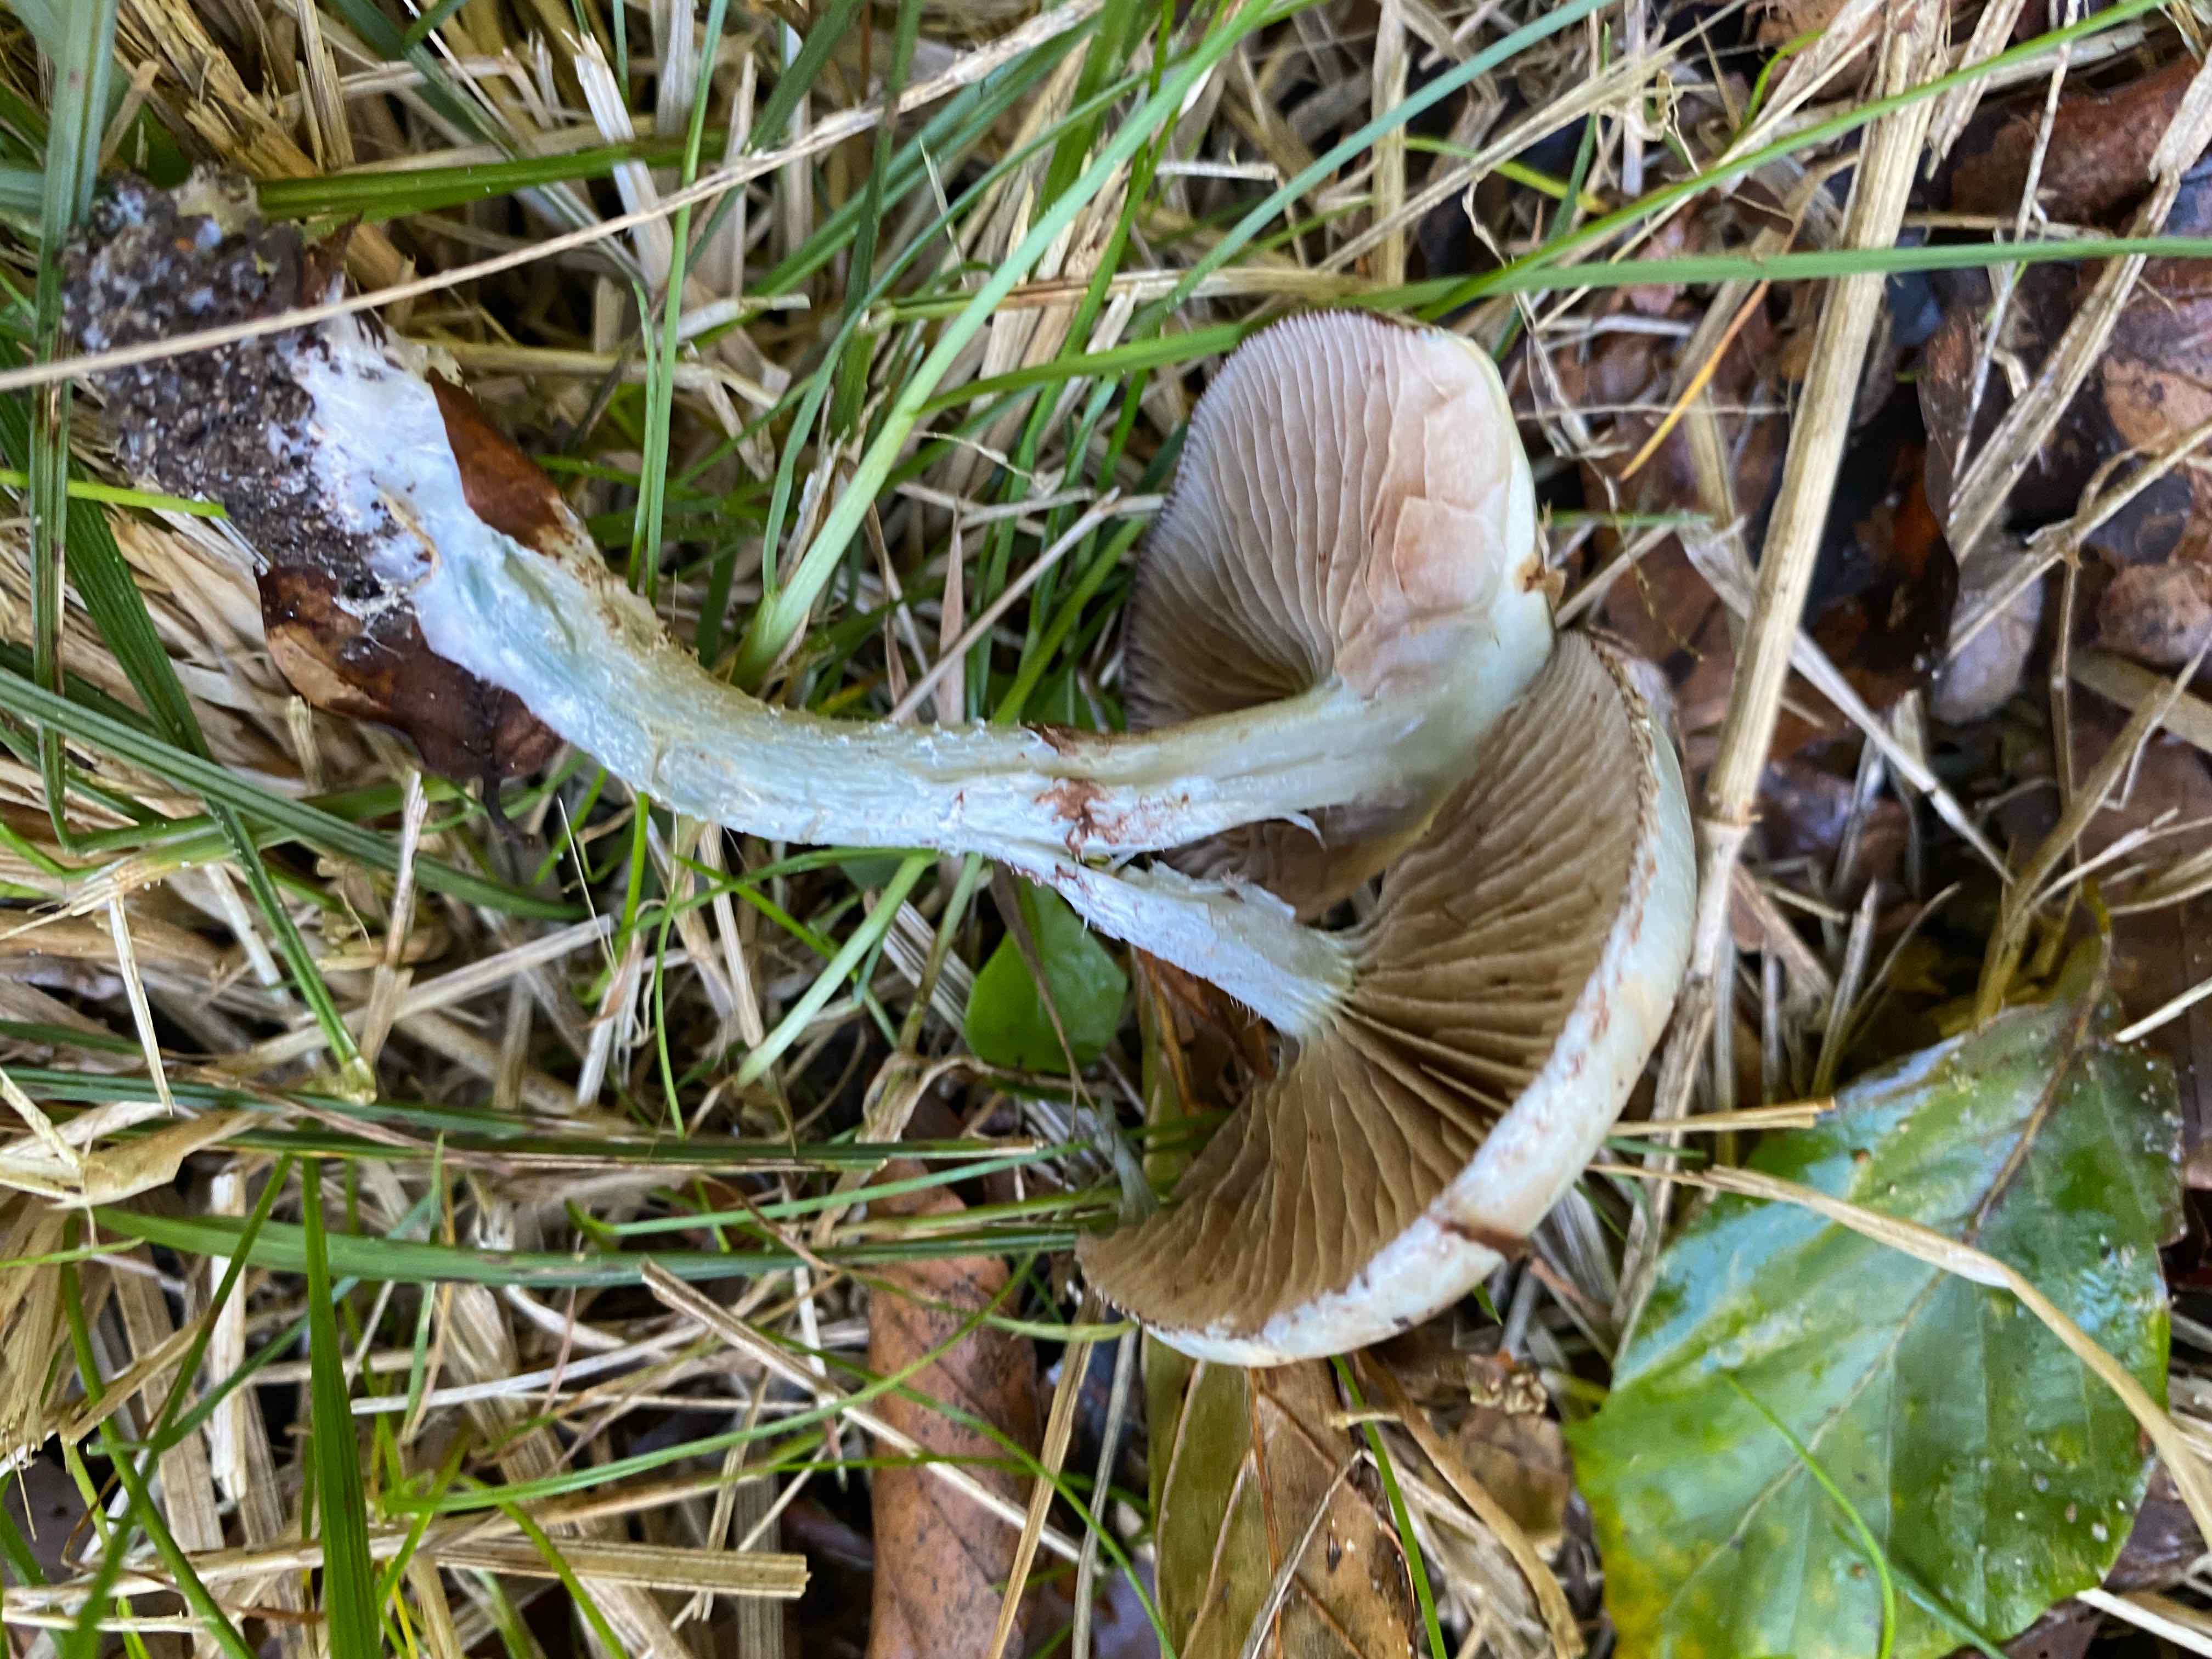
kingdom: Fungi
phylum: Basidiomycota
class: Agaricomycetes
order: Agaricales
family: Strophariaceae
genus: Stropharia
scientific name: Stropharia cyanea
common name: blågrøn bredblad
